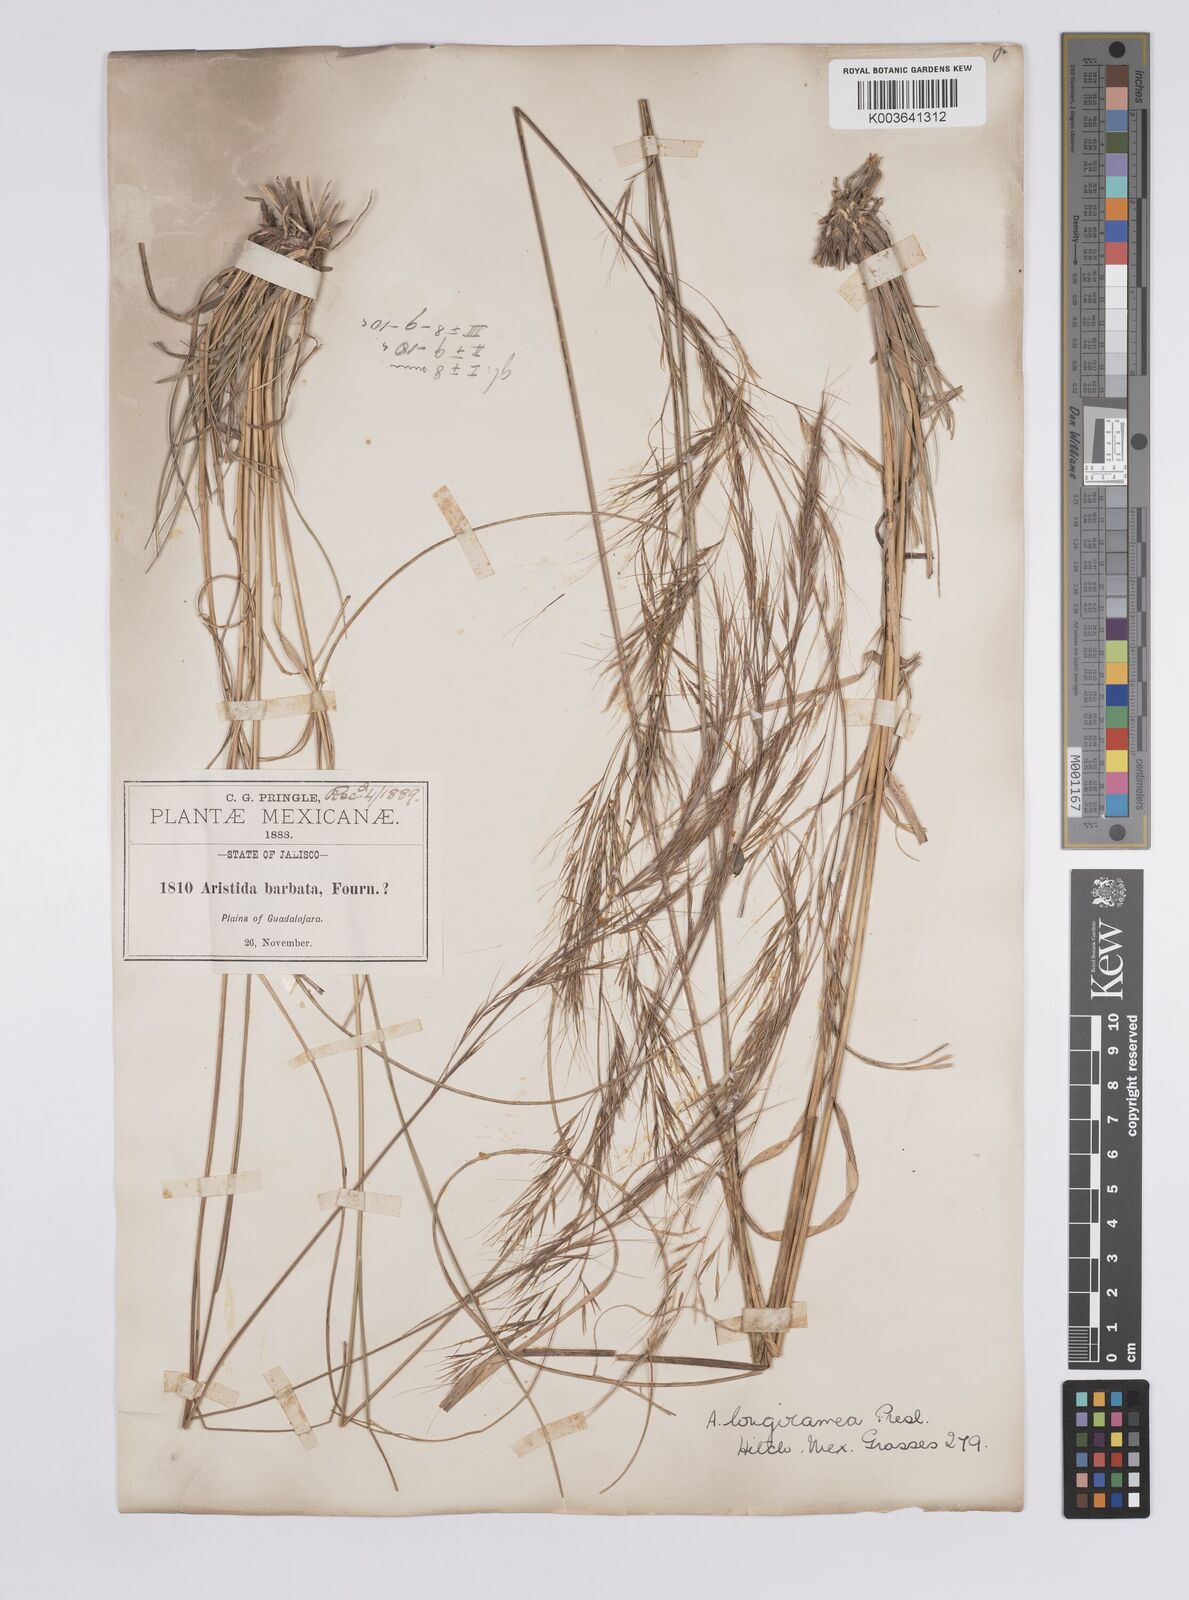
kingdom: Plantae
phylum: Tracheophyta
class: Liliopsida
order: Poales
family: Poaceae
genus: Aristida
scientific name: Aristida laxa
